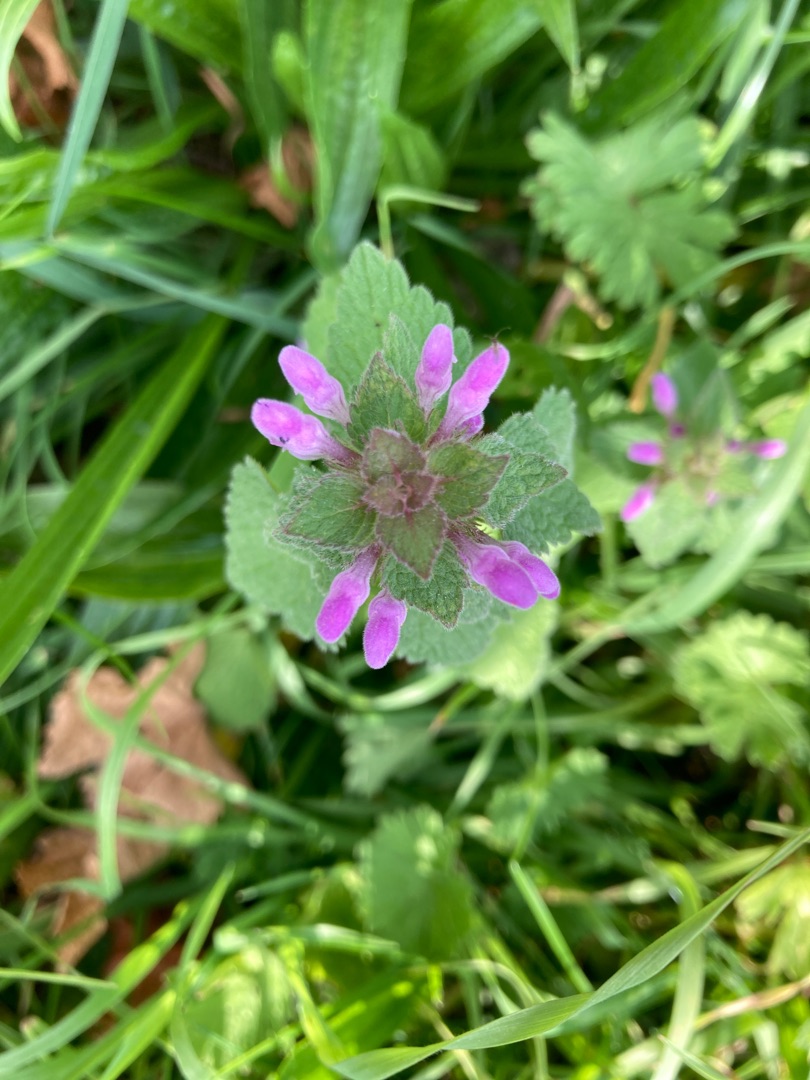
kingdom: Plantae
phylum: Tracheophyta
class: Magnoliopsida
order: Lamiales
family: Lamiaceae
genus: Lamium
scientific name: Lamium purpureum
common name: Rød tvetand
